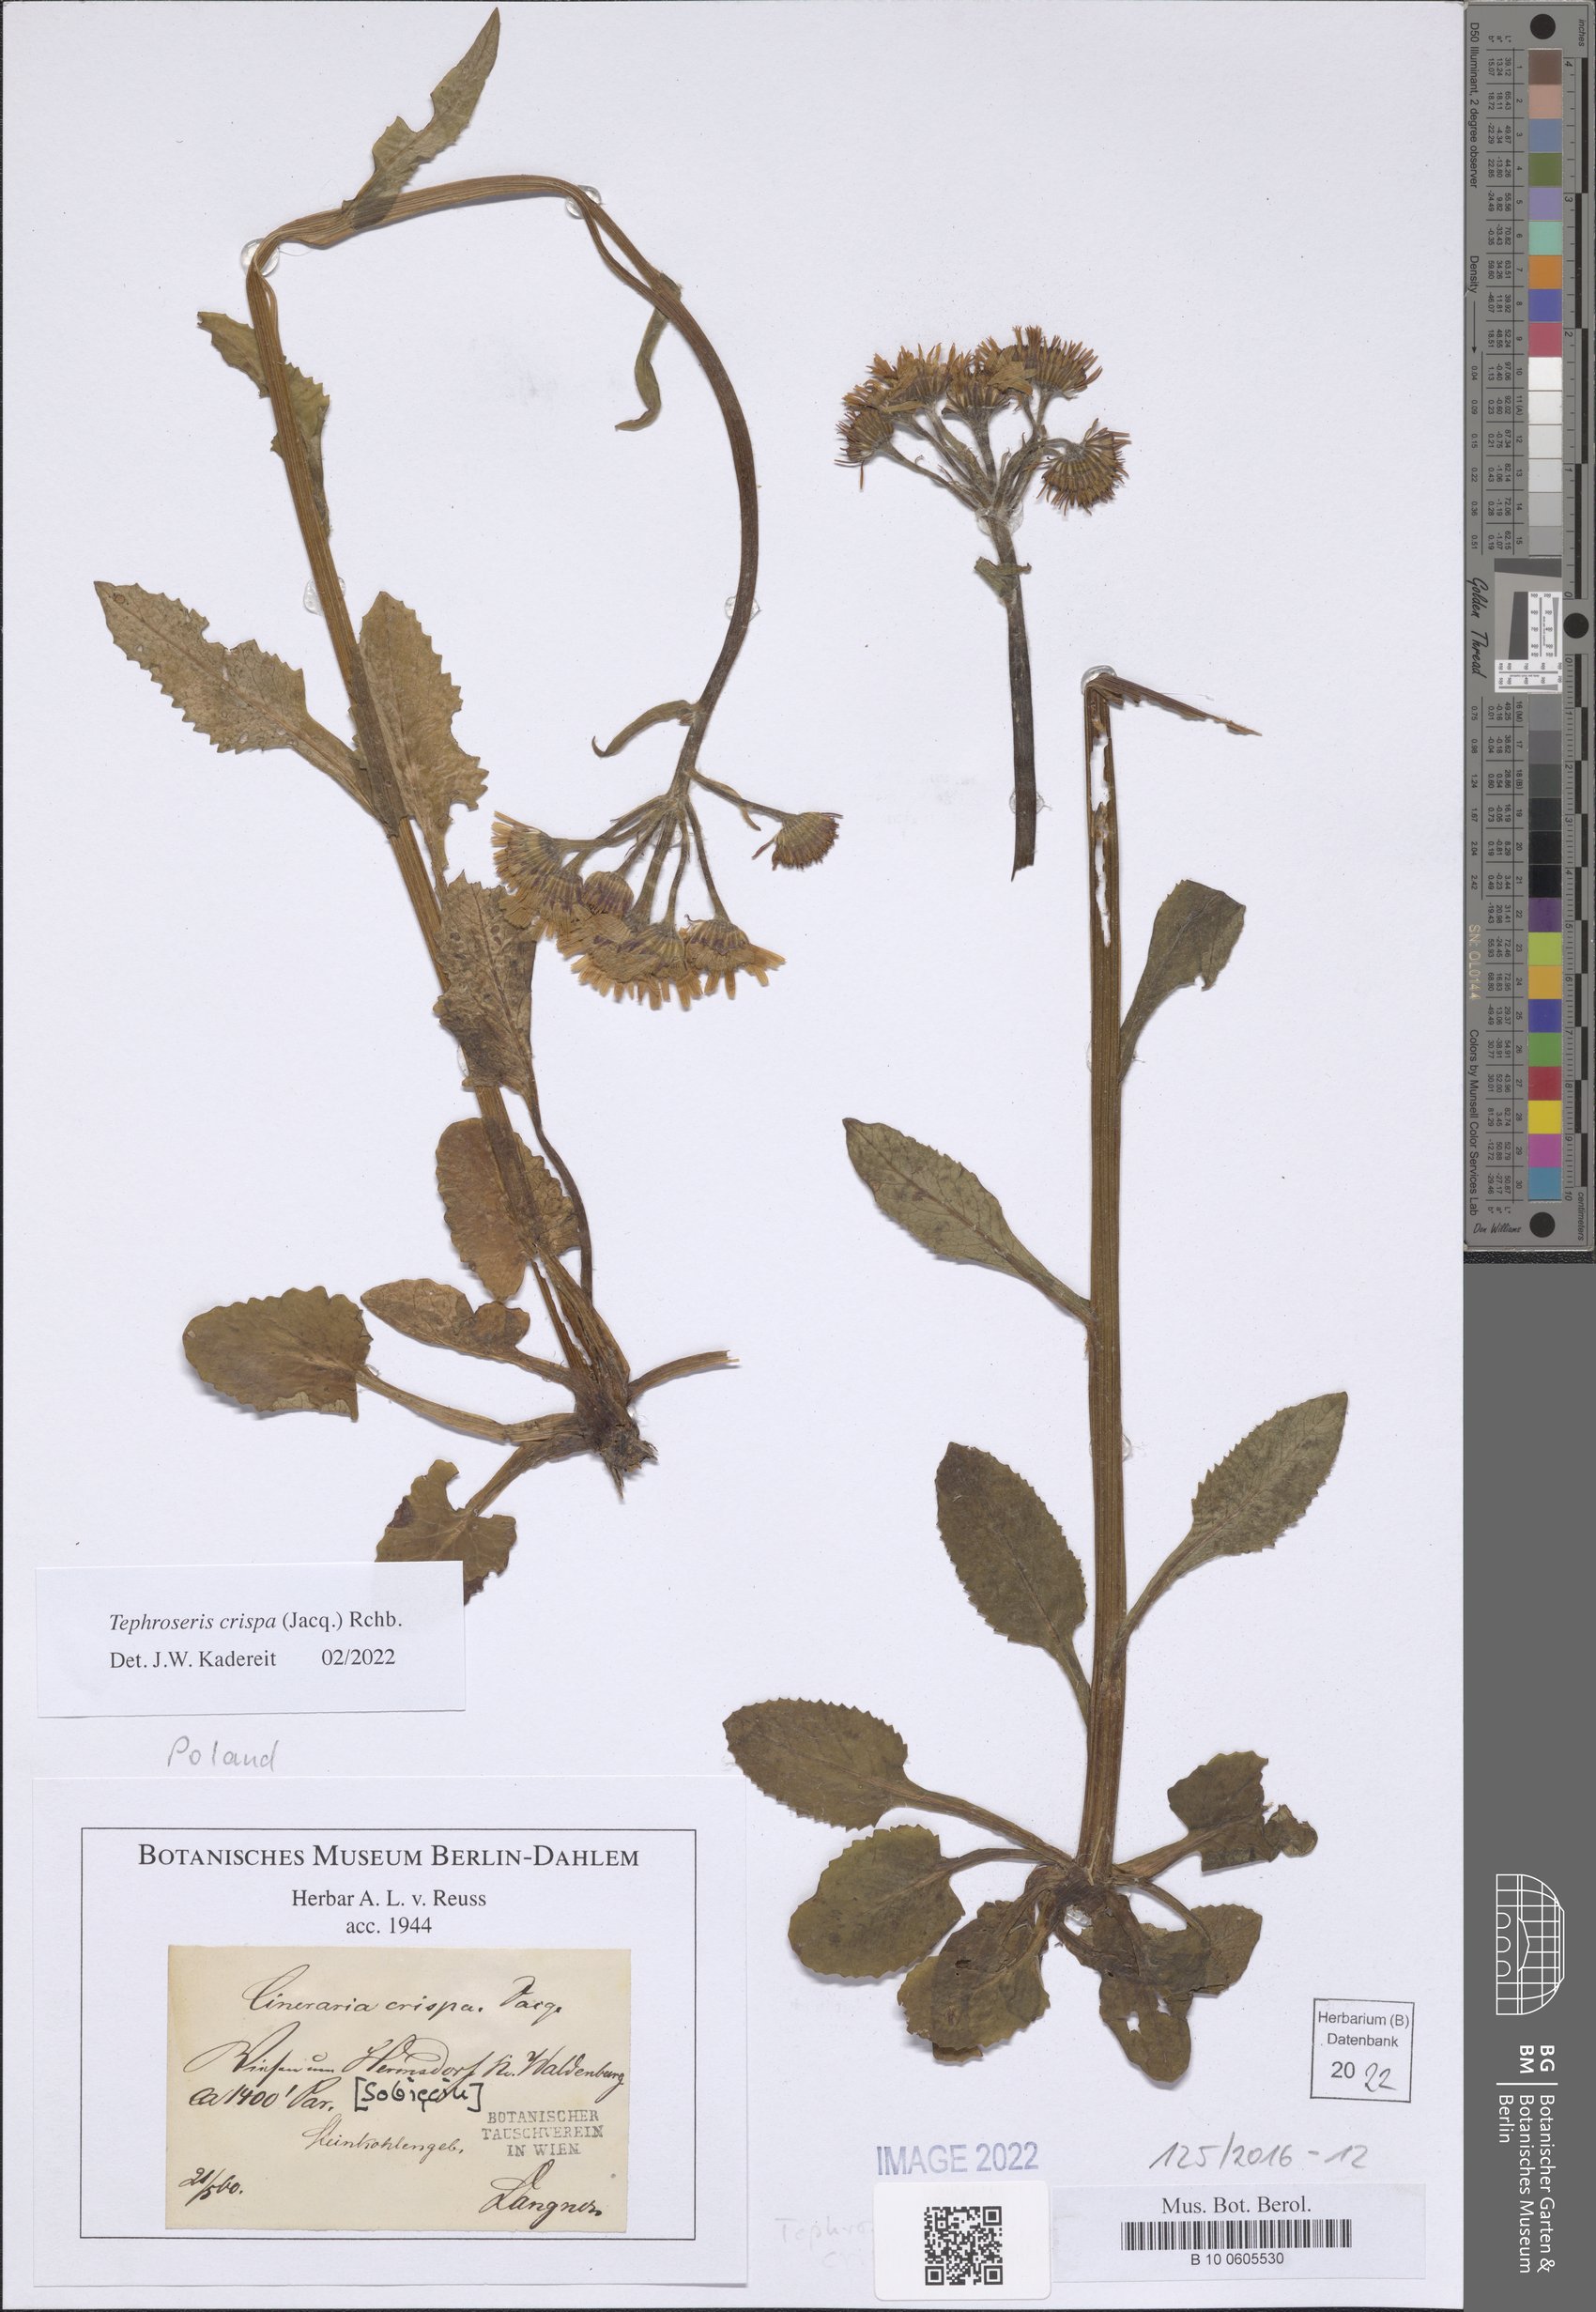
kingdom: Plantae
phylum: Tracheophyta
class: Magnoliopsida
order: Asterales
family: Asteraceae
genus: Tephroseris
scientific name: Tephroseris crispa
